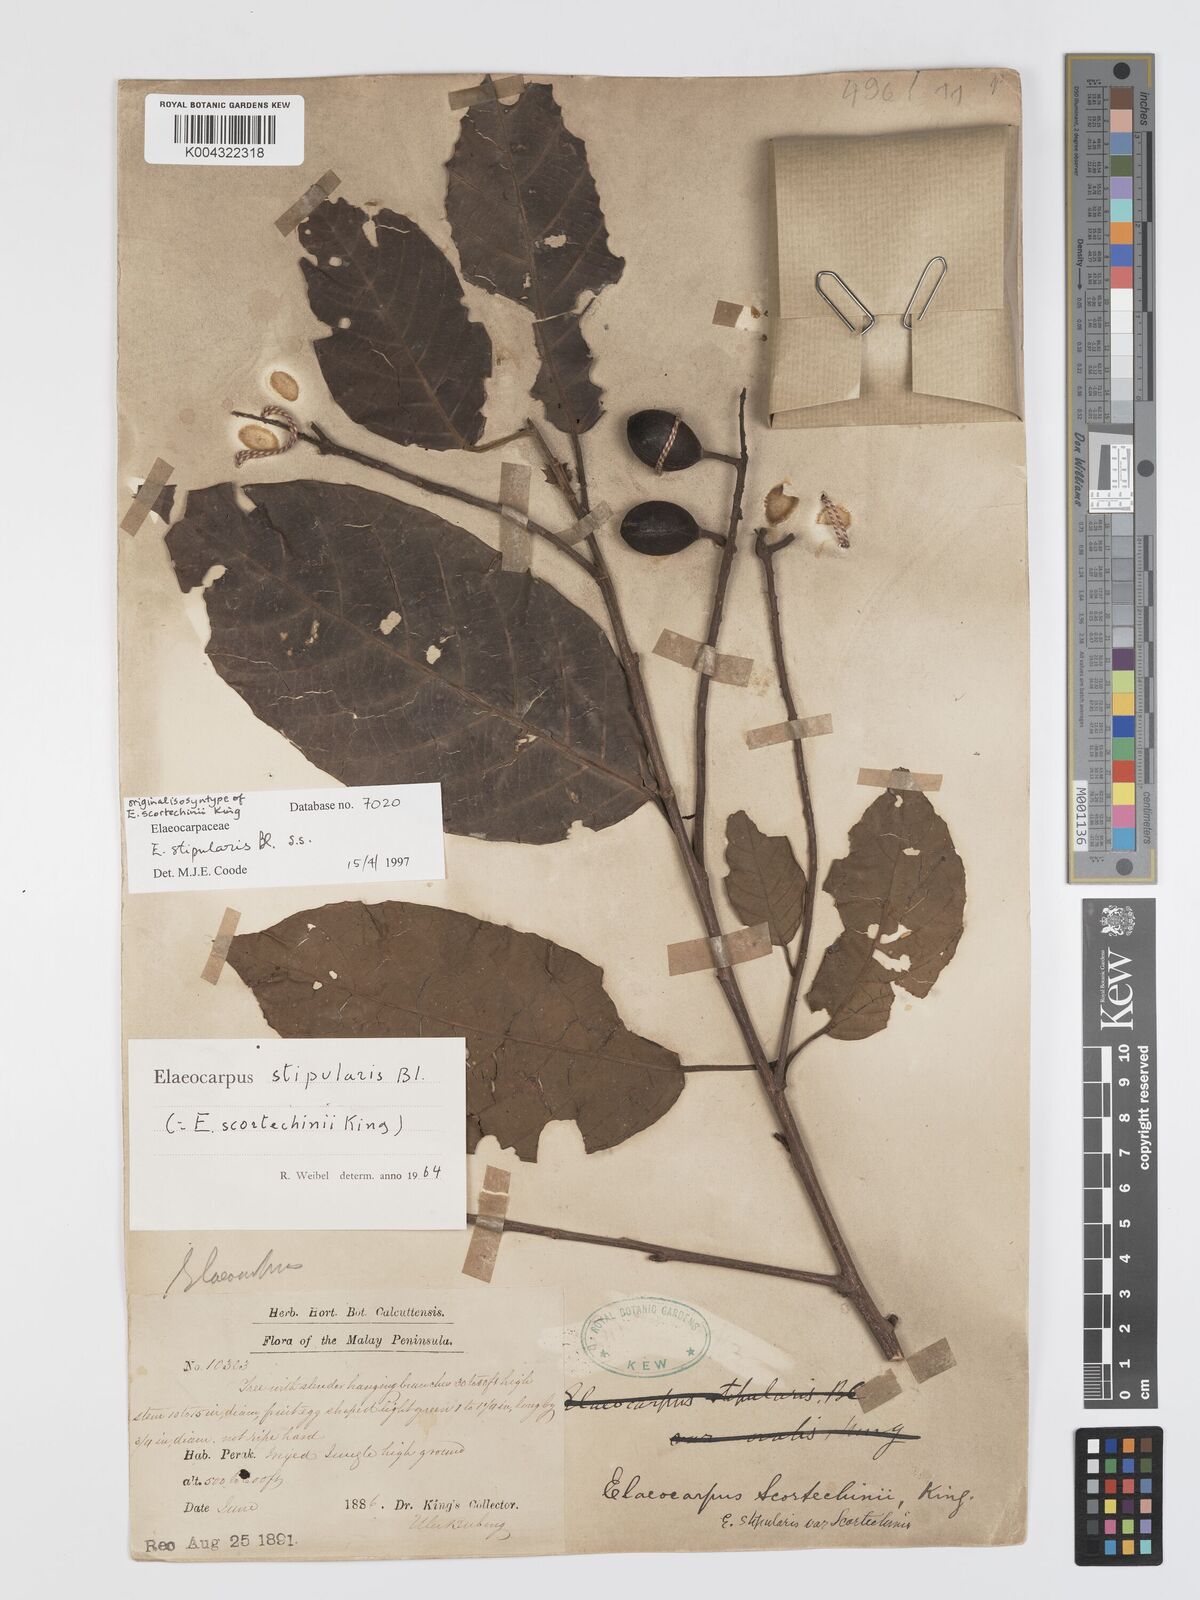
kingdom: Plantae
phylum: Tracheophyta
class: Magnoliopsida
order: Oxalidales
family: Elaeocarpaceae
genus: Elaeocarpus
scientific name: Elaeocarpus stipularis
